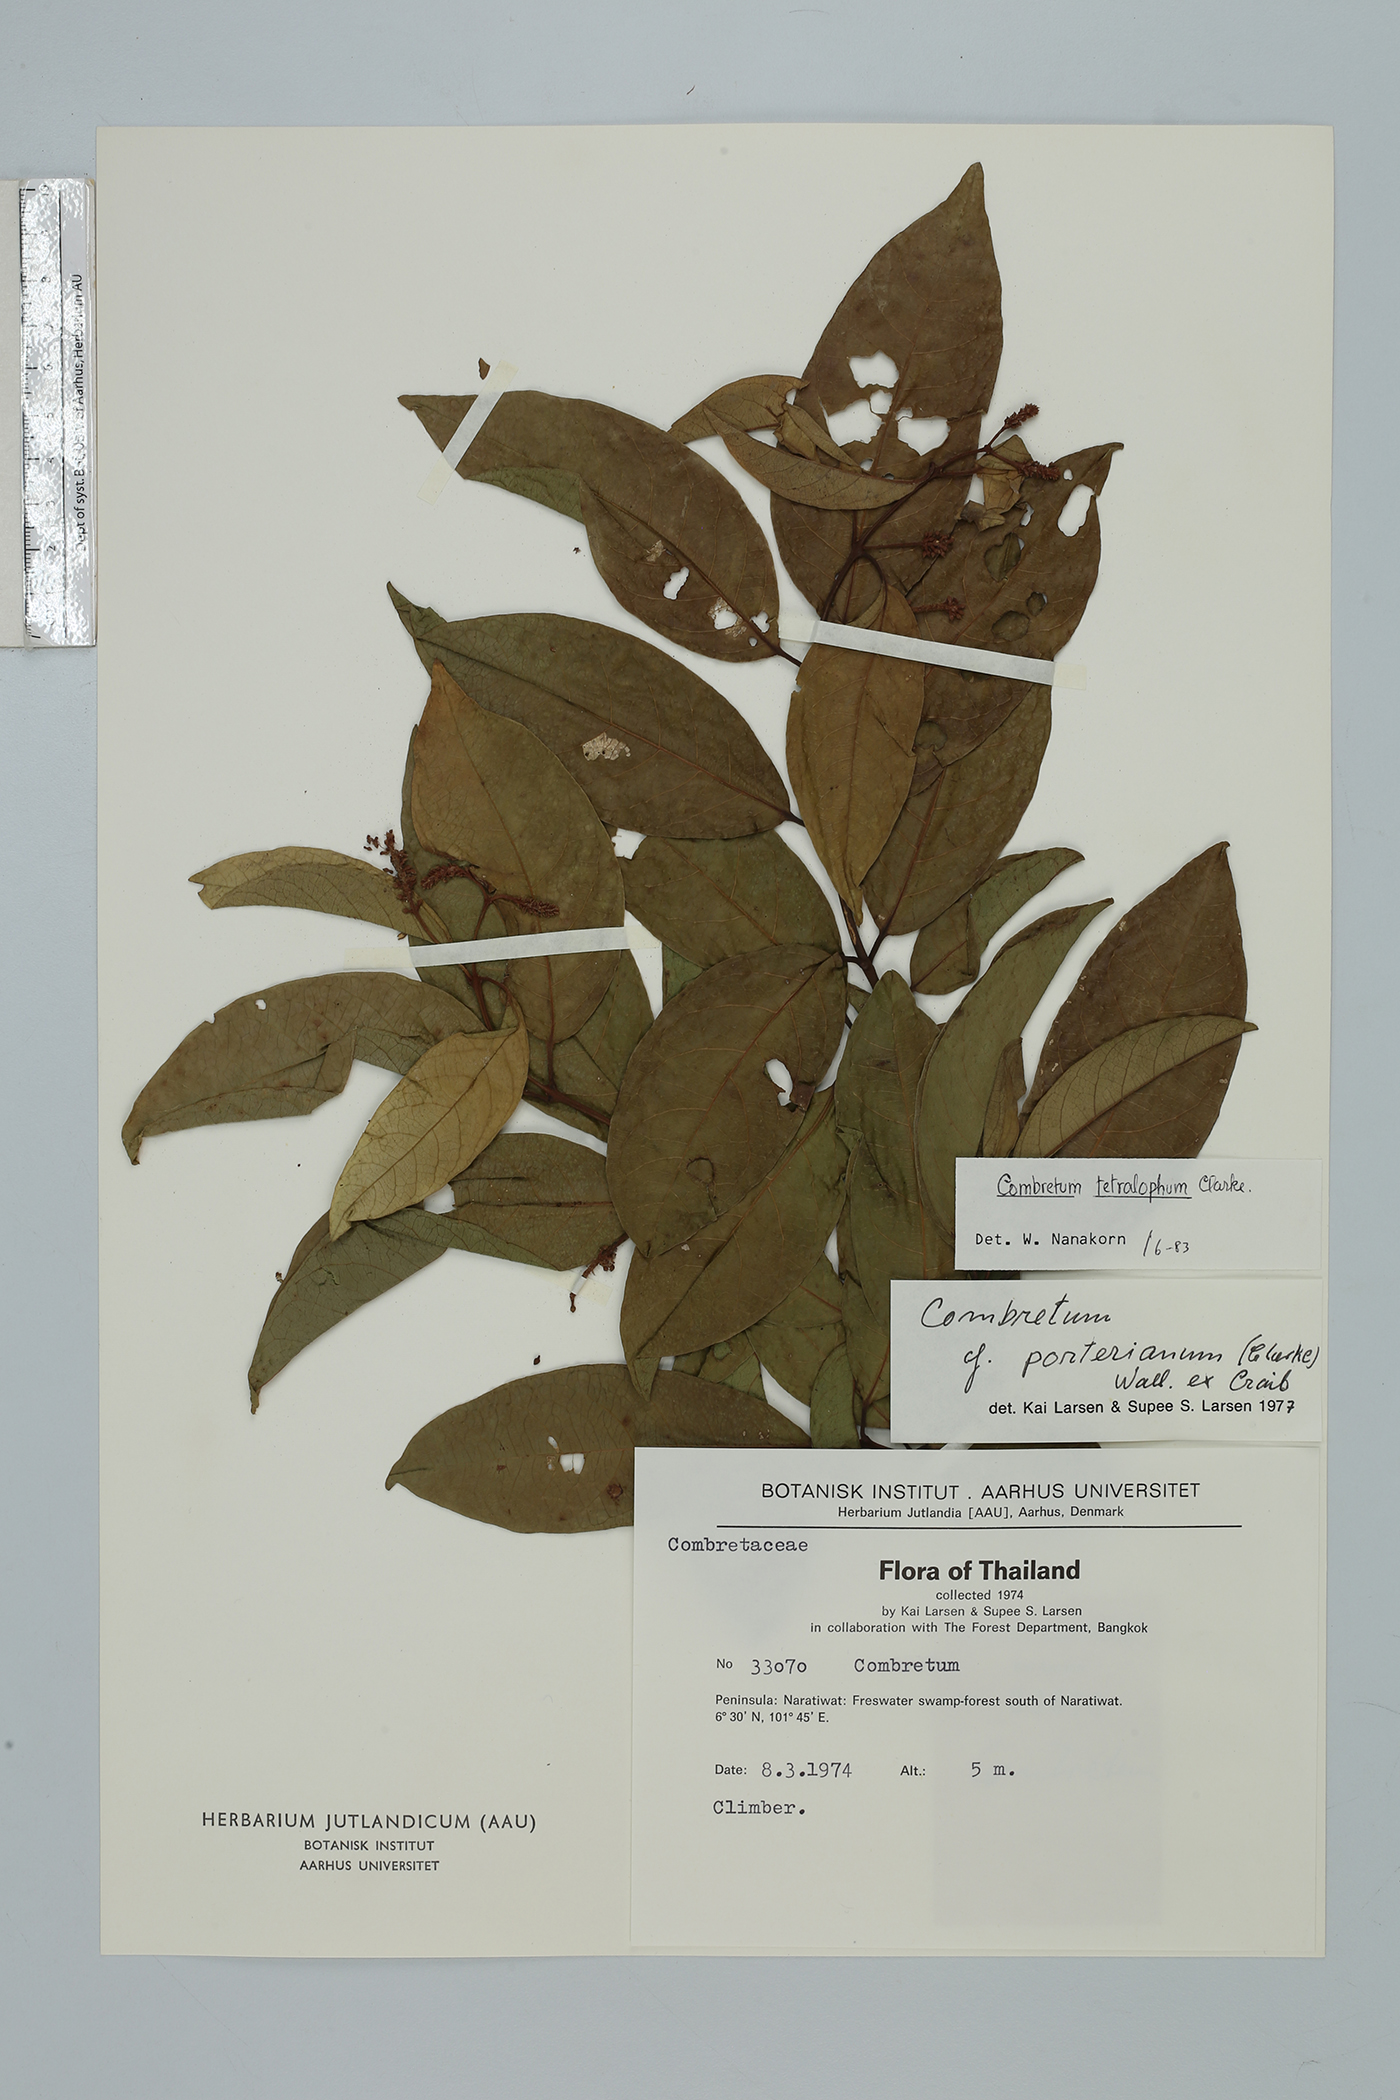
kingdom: Plantae
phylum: Tracheophyta
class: Magnoliopsida
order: Myrtales
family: Combretaceae
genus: Combretum
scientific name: Combretum tetralophum
